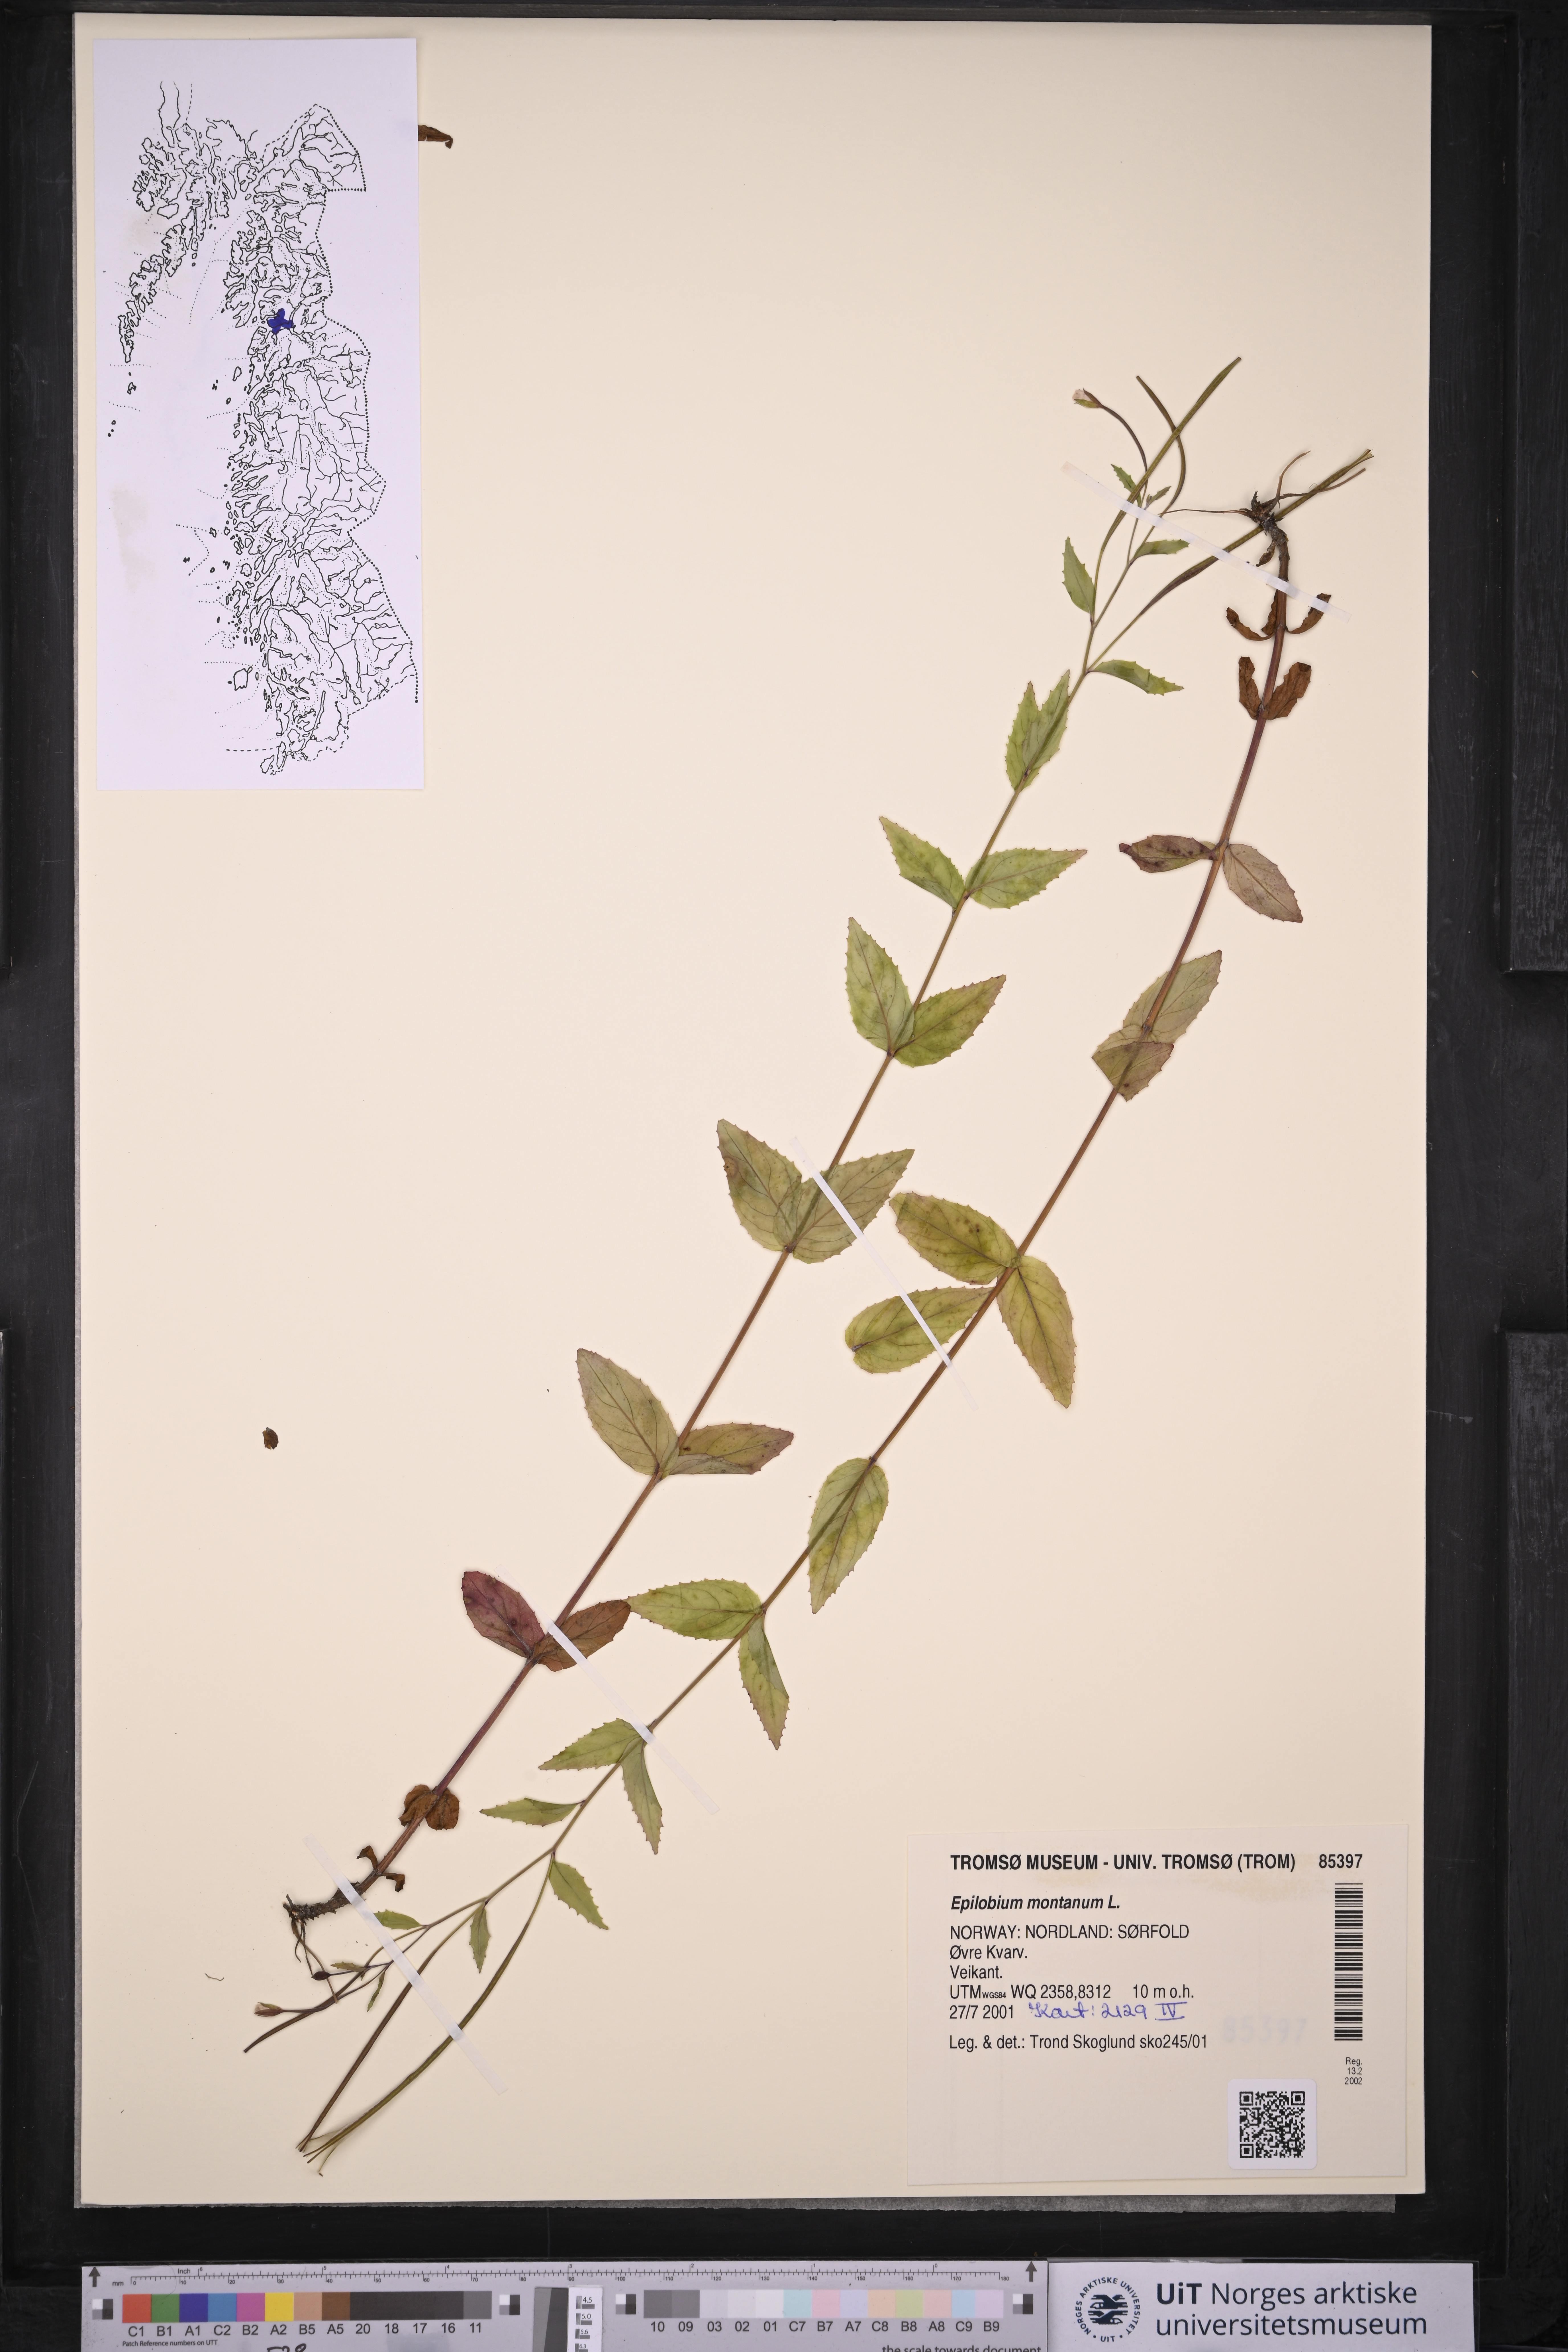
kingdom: Plantae
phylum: Tracheophyta
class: Magnoliopsida
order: Myrtales
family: Onagraceae
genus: Epilobium
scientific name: Epilobium montanum
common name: Broad-leaved willowherb
